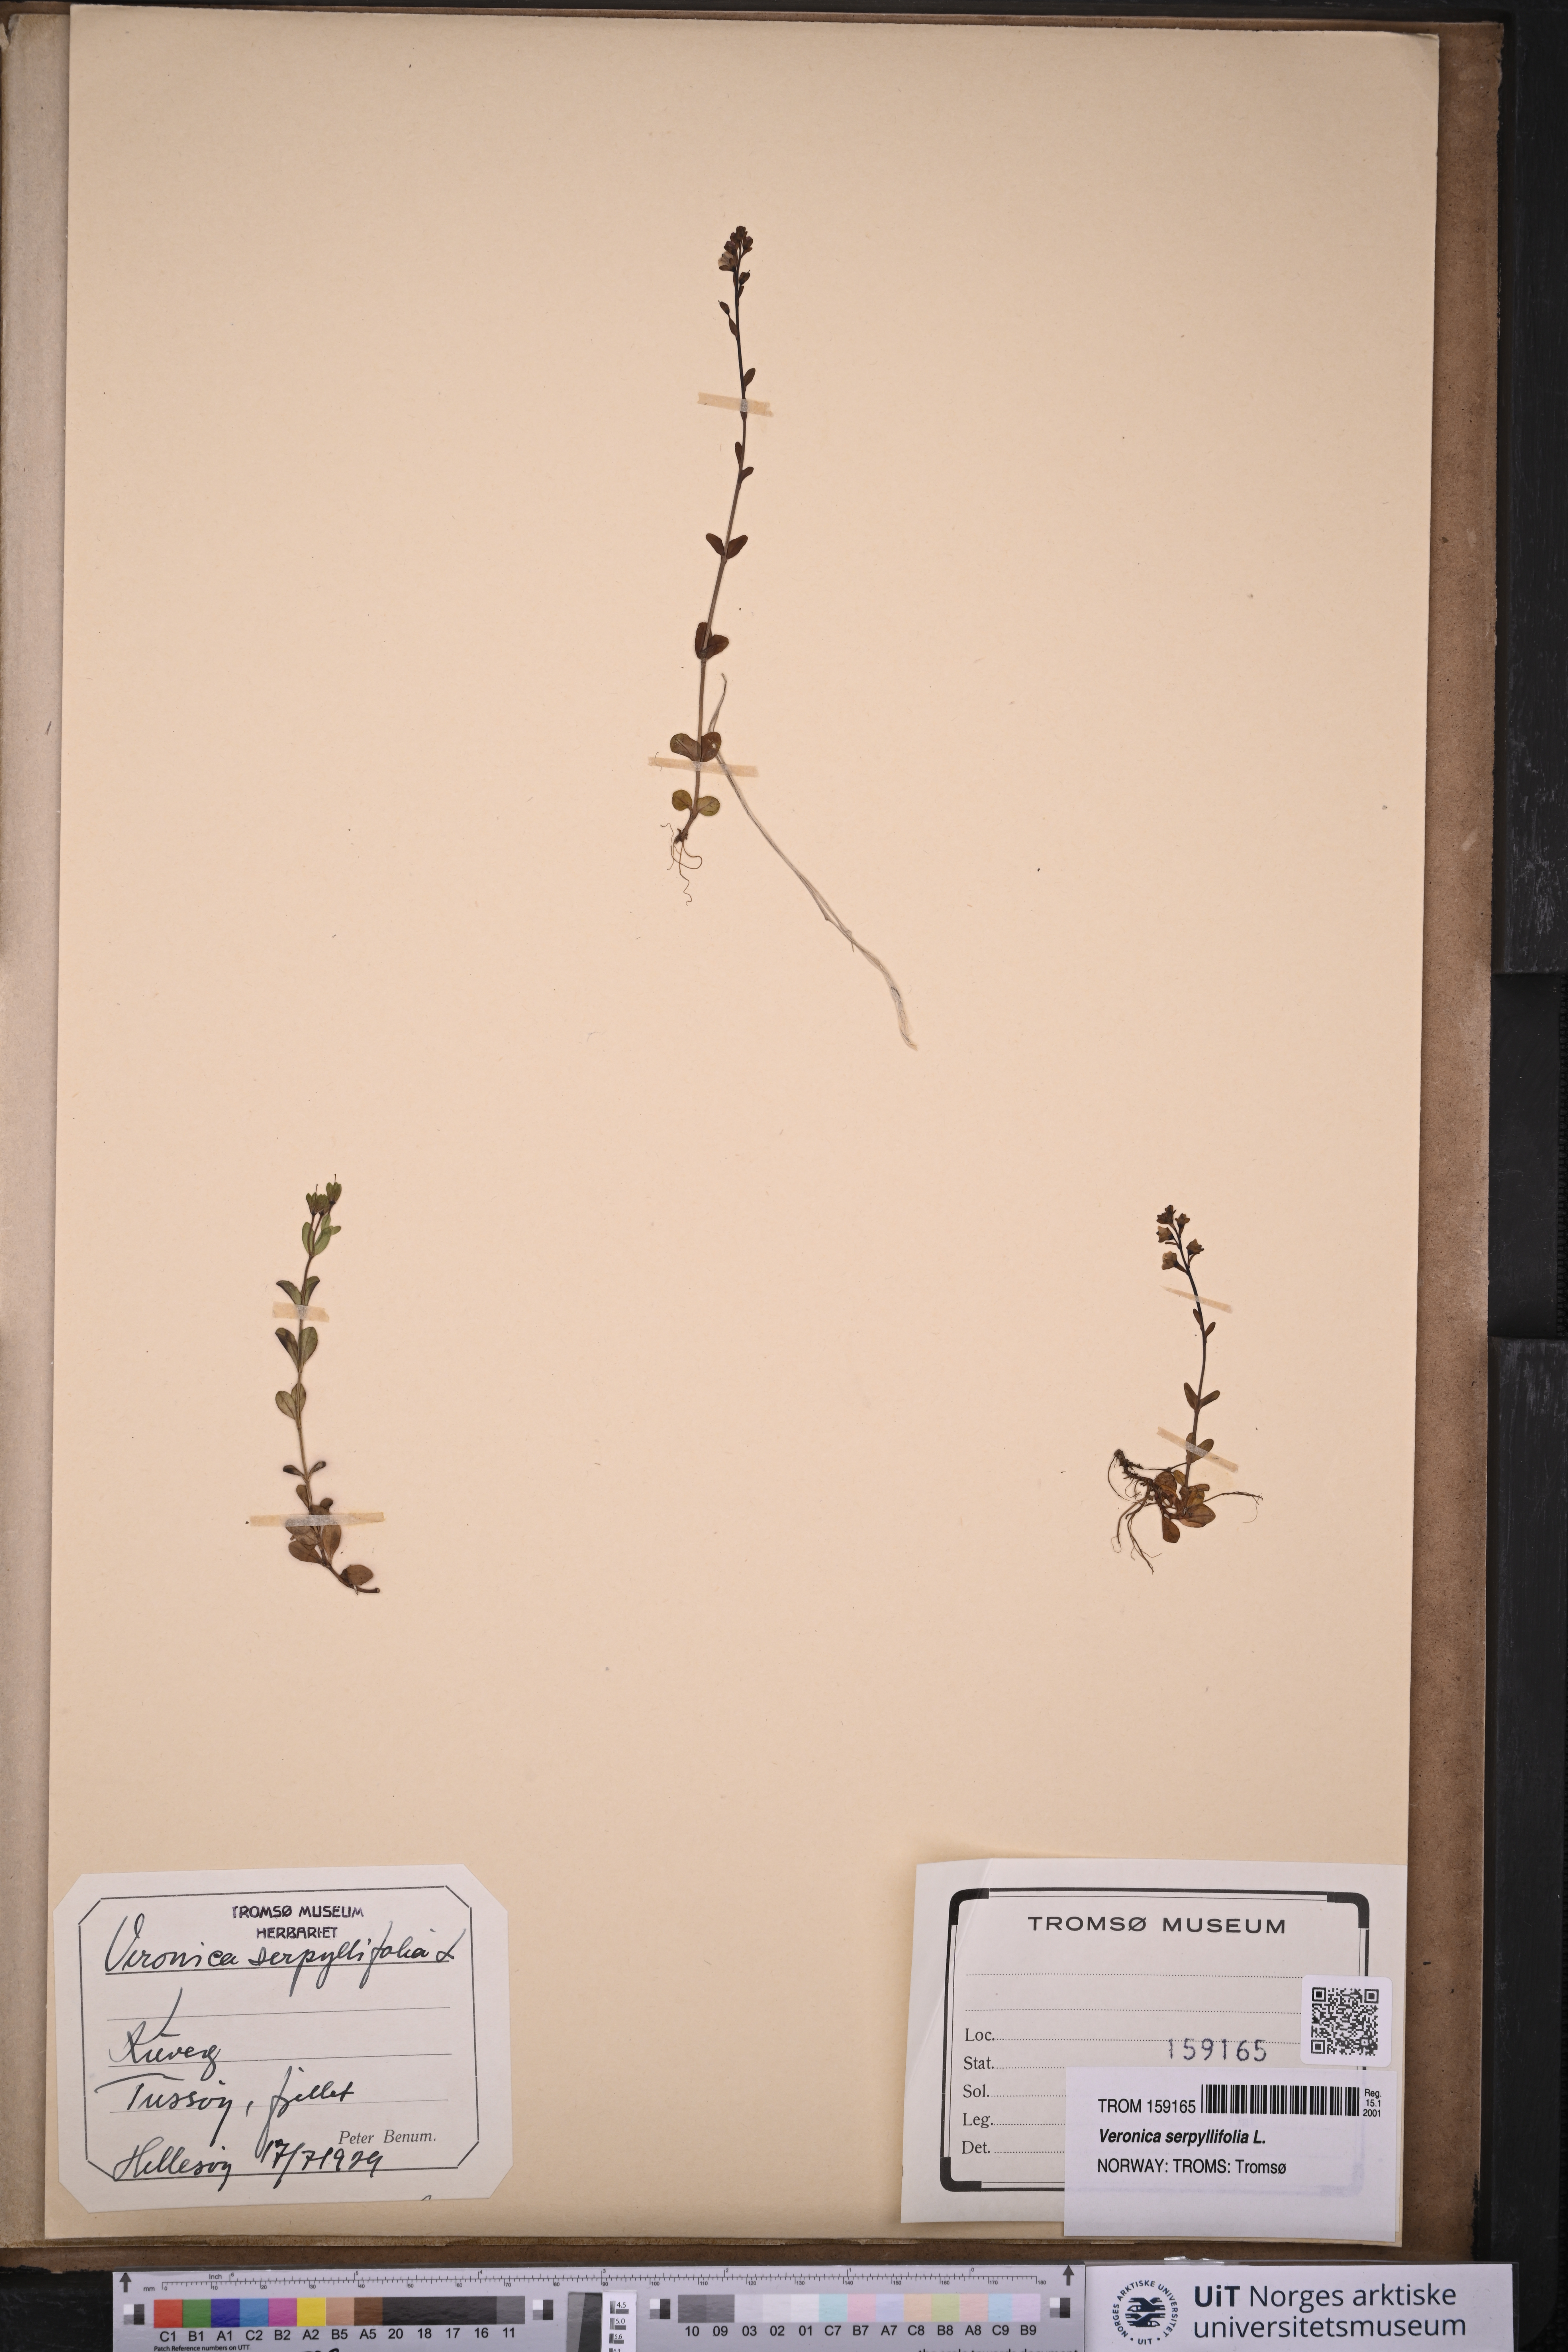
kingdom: Plantae
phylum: Tracheophyta
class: Magnoliopsida
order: Lamiales
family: Plantaginaceae
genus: Veronica
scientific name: Veronica serpyllifolia
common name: Thyme-leaved speedwell
